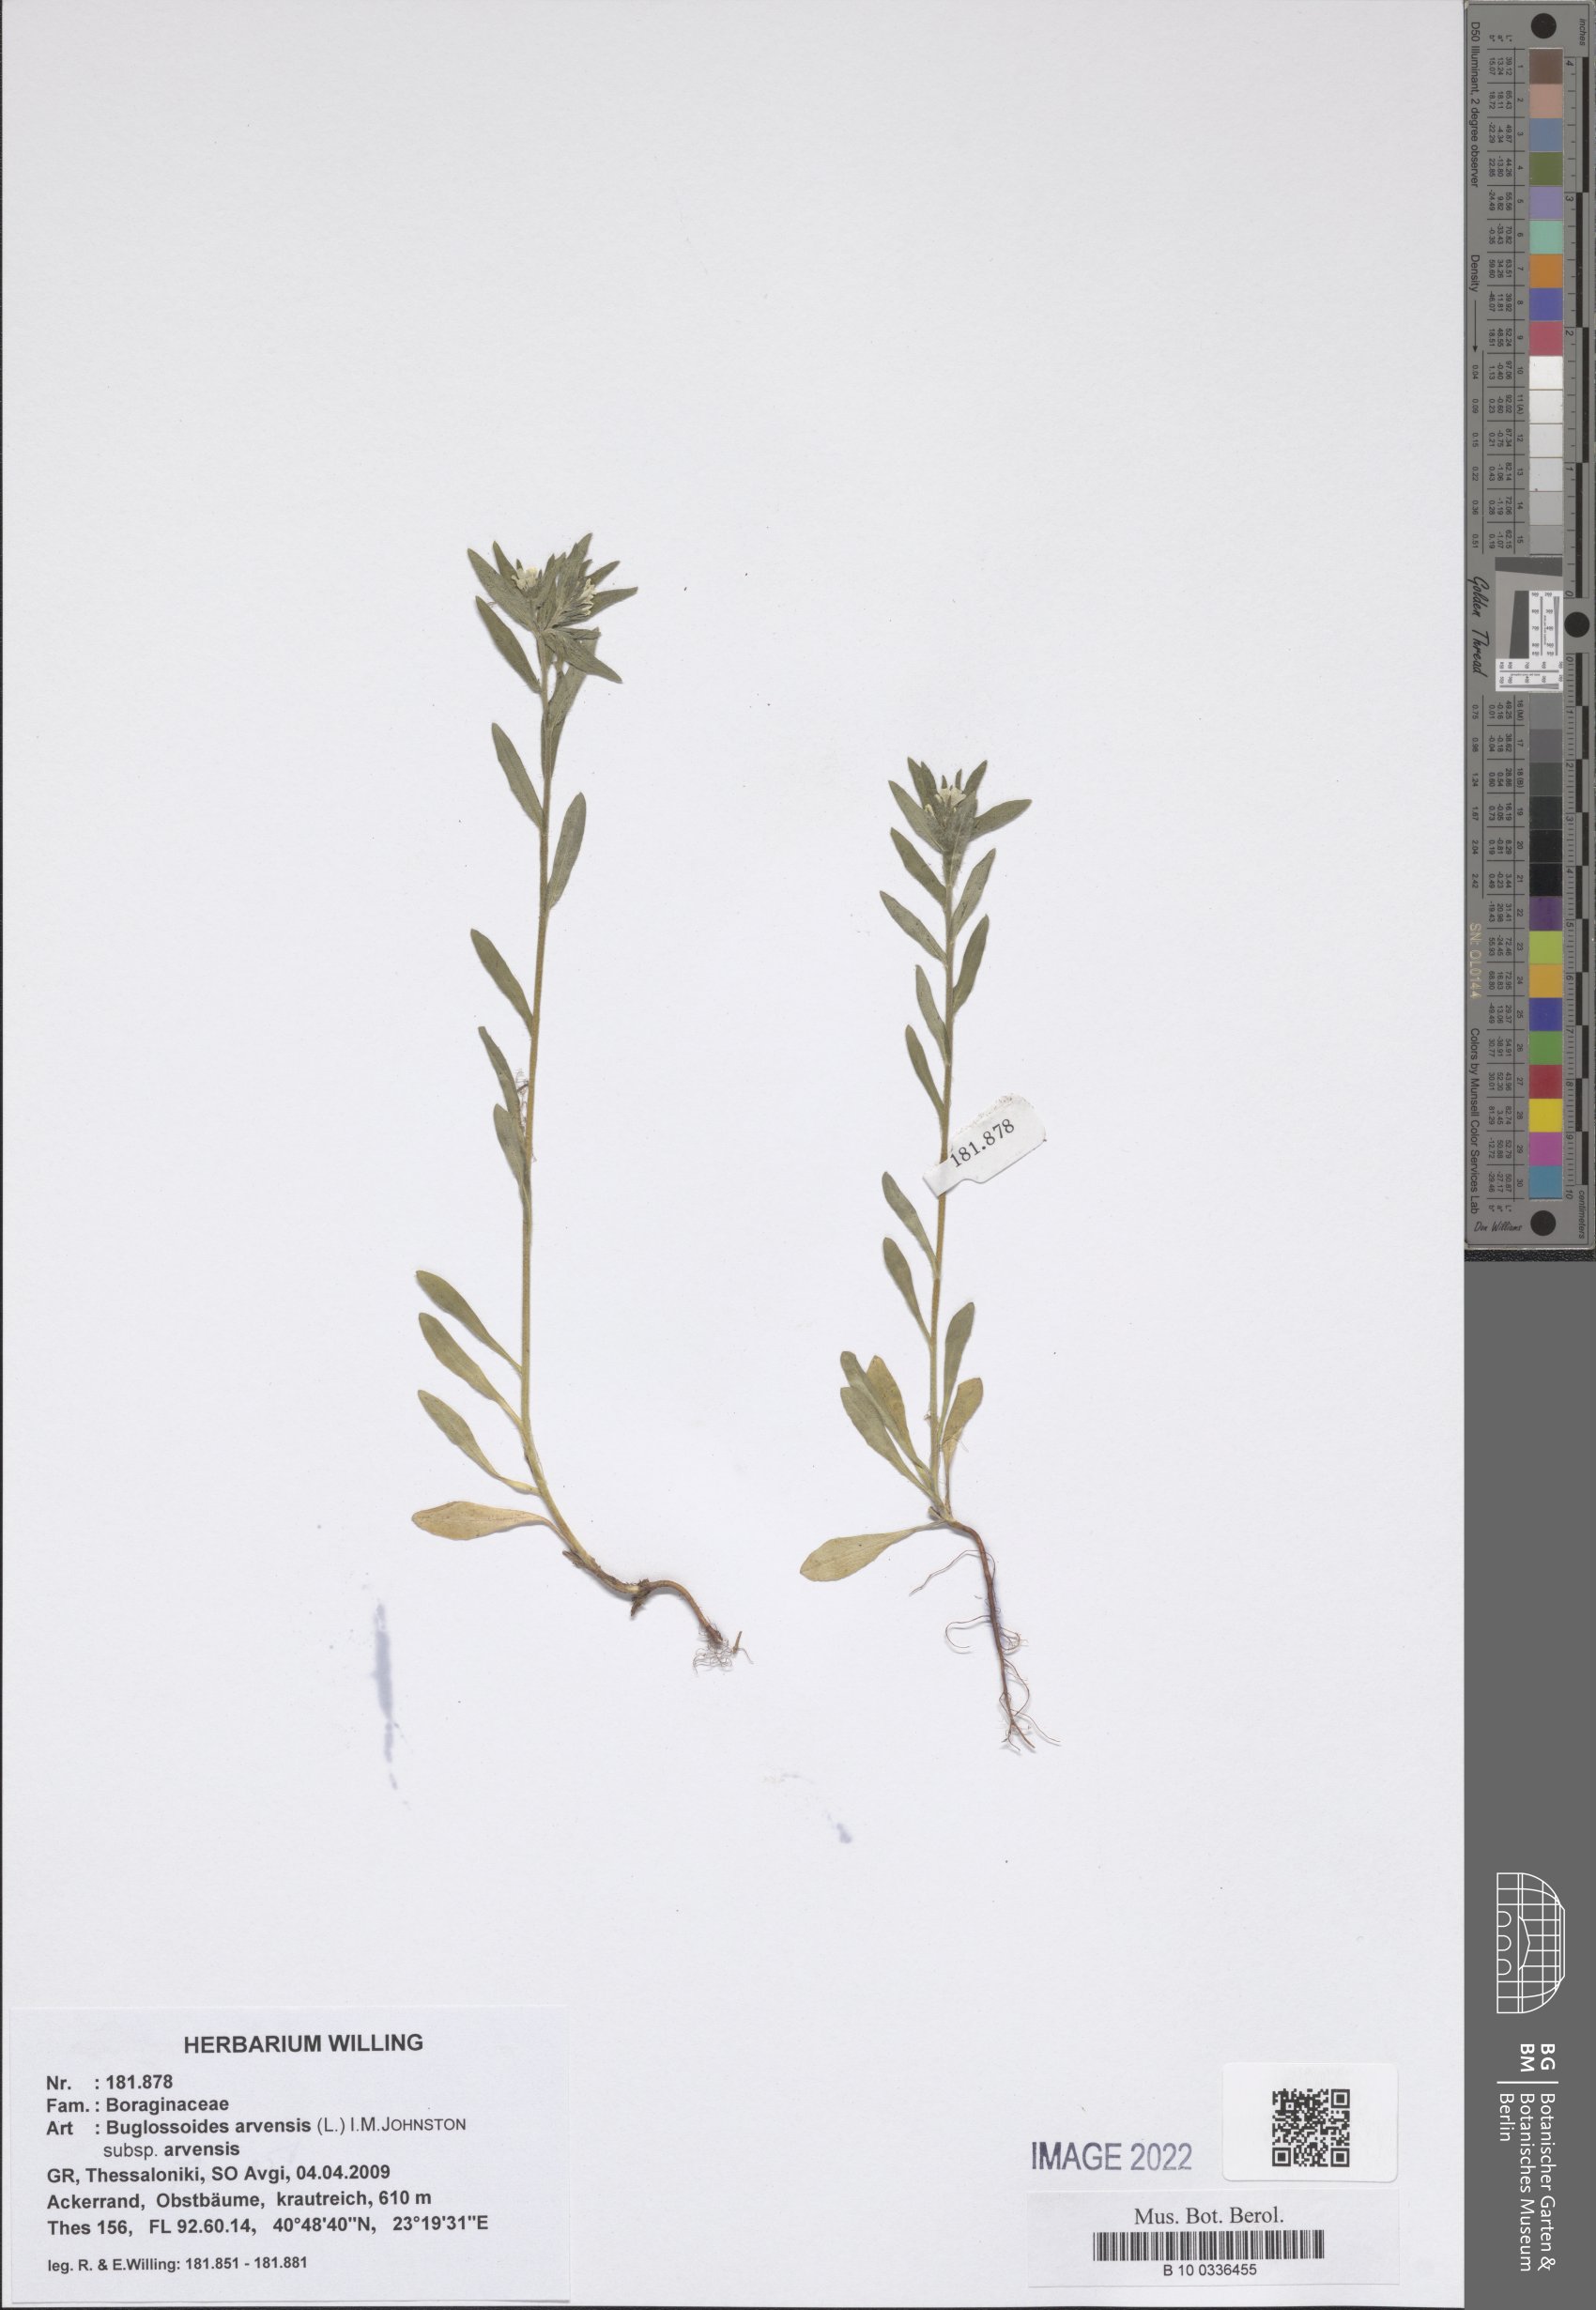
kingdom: Plantae
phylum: Tracheophyta
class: Magnoliopsida
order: Boraginales
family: Boraginaceae
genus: Buglossoides
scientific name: Buglossoides arvensis
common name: Corn gromwell
